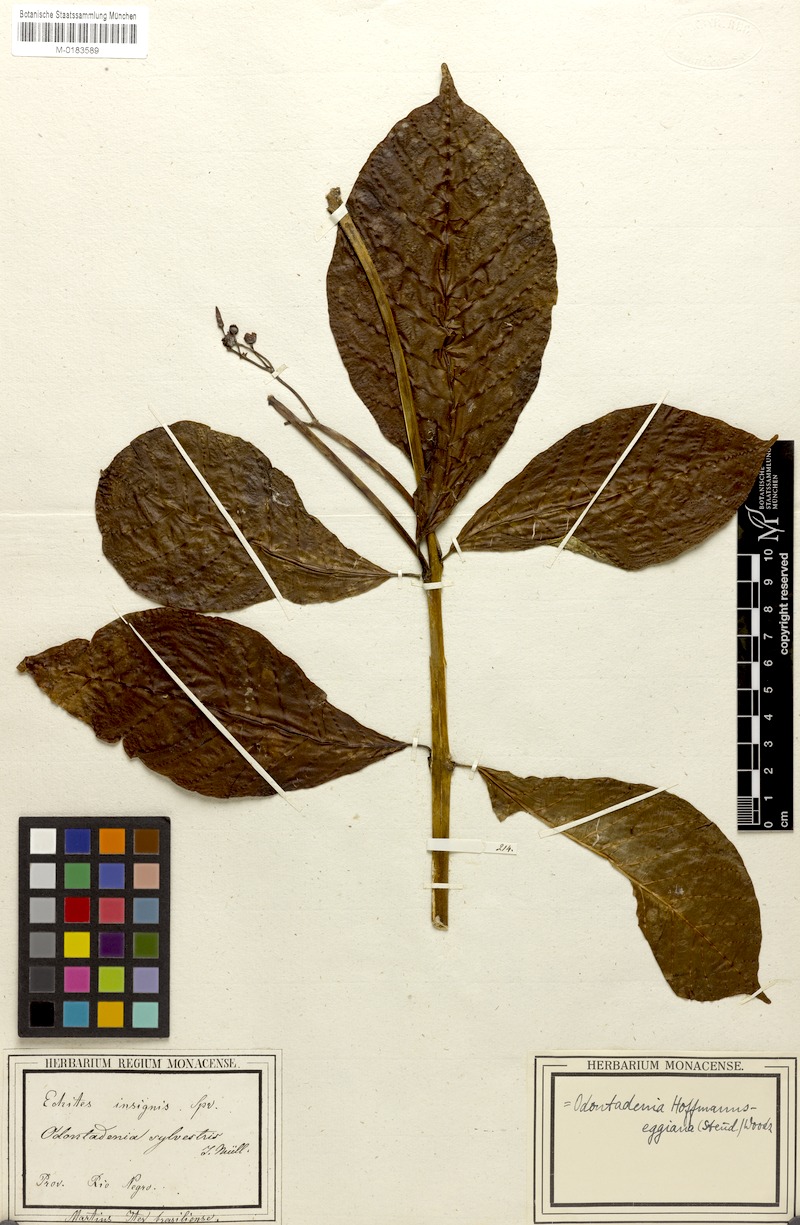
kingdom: Plantae
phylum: Tracheophyta
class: Magnoliopsida
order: Gentianales
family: Apocynaceae
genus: Odontadenia
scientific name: Odontadenia semidigyna
